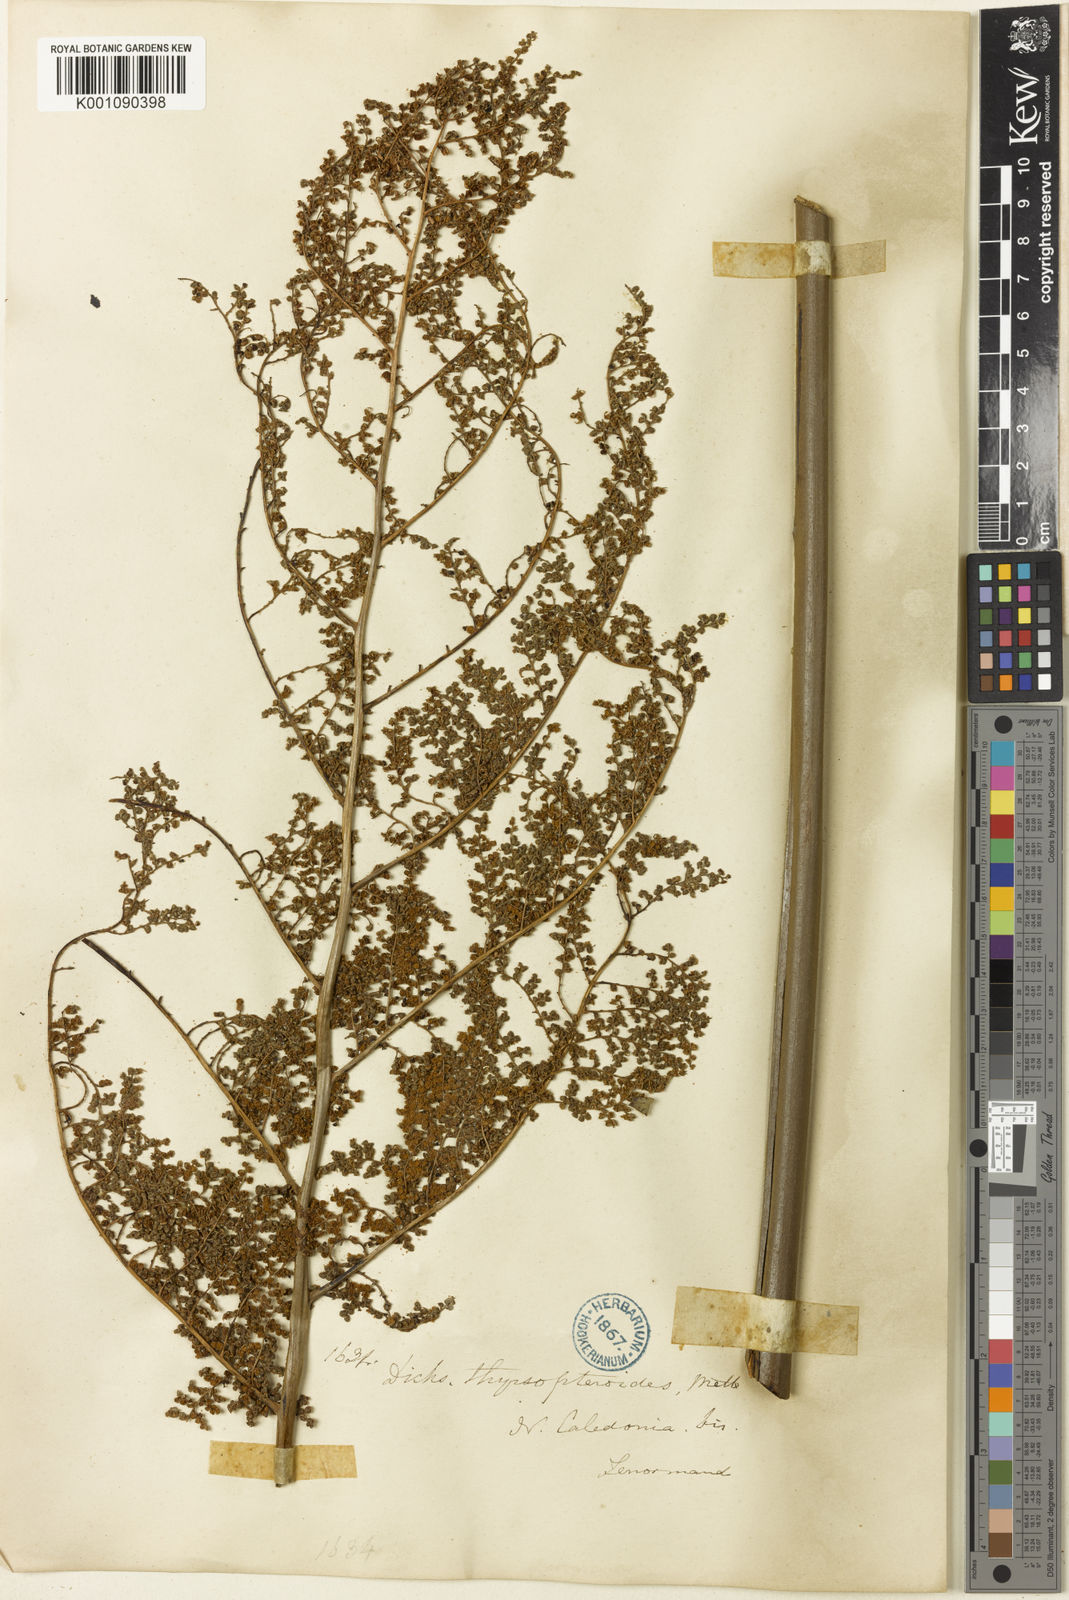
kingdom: Plantae
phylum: Tracheophyta
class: Polypodiopsida
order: Cyatheales
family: Dicksoniaceae
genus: Dicksonia
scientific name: Dicksonia thyrsopteroides
